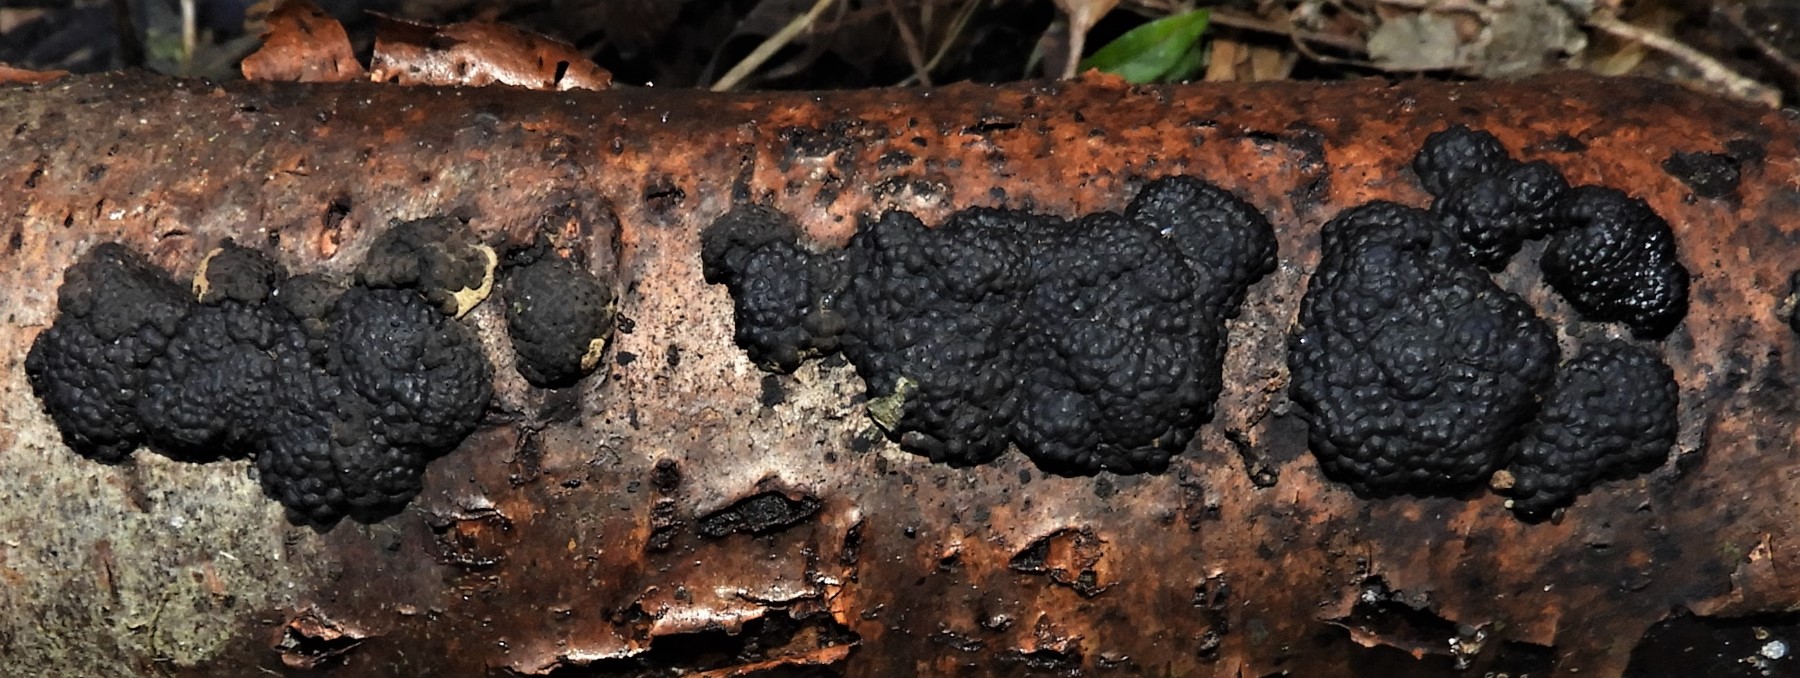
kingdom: Fungi
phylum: Ascomycota
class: Sordariomycetes
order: Xylariales
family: Hypoxylaceae
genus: Jackrogersella
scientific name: Jackrogersella multiformis
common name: foranderlig kulbær
